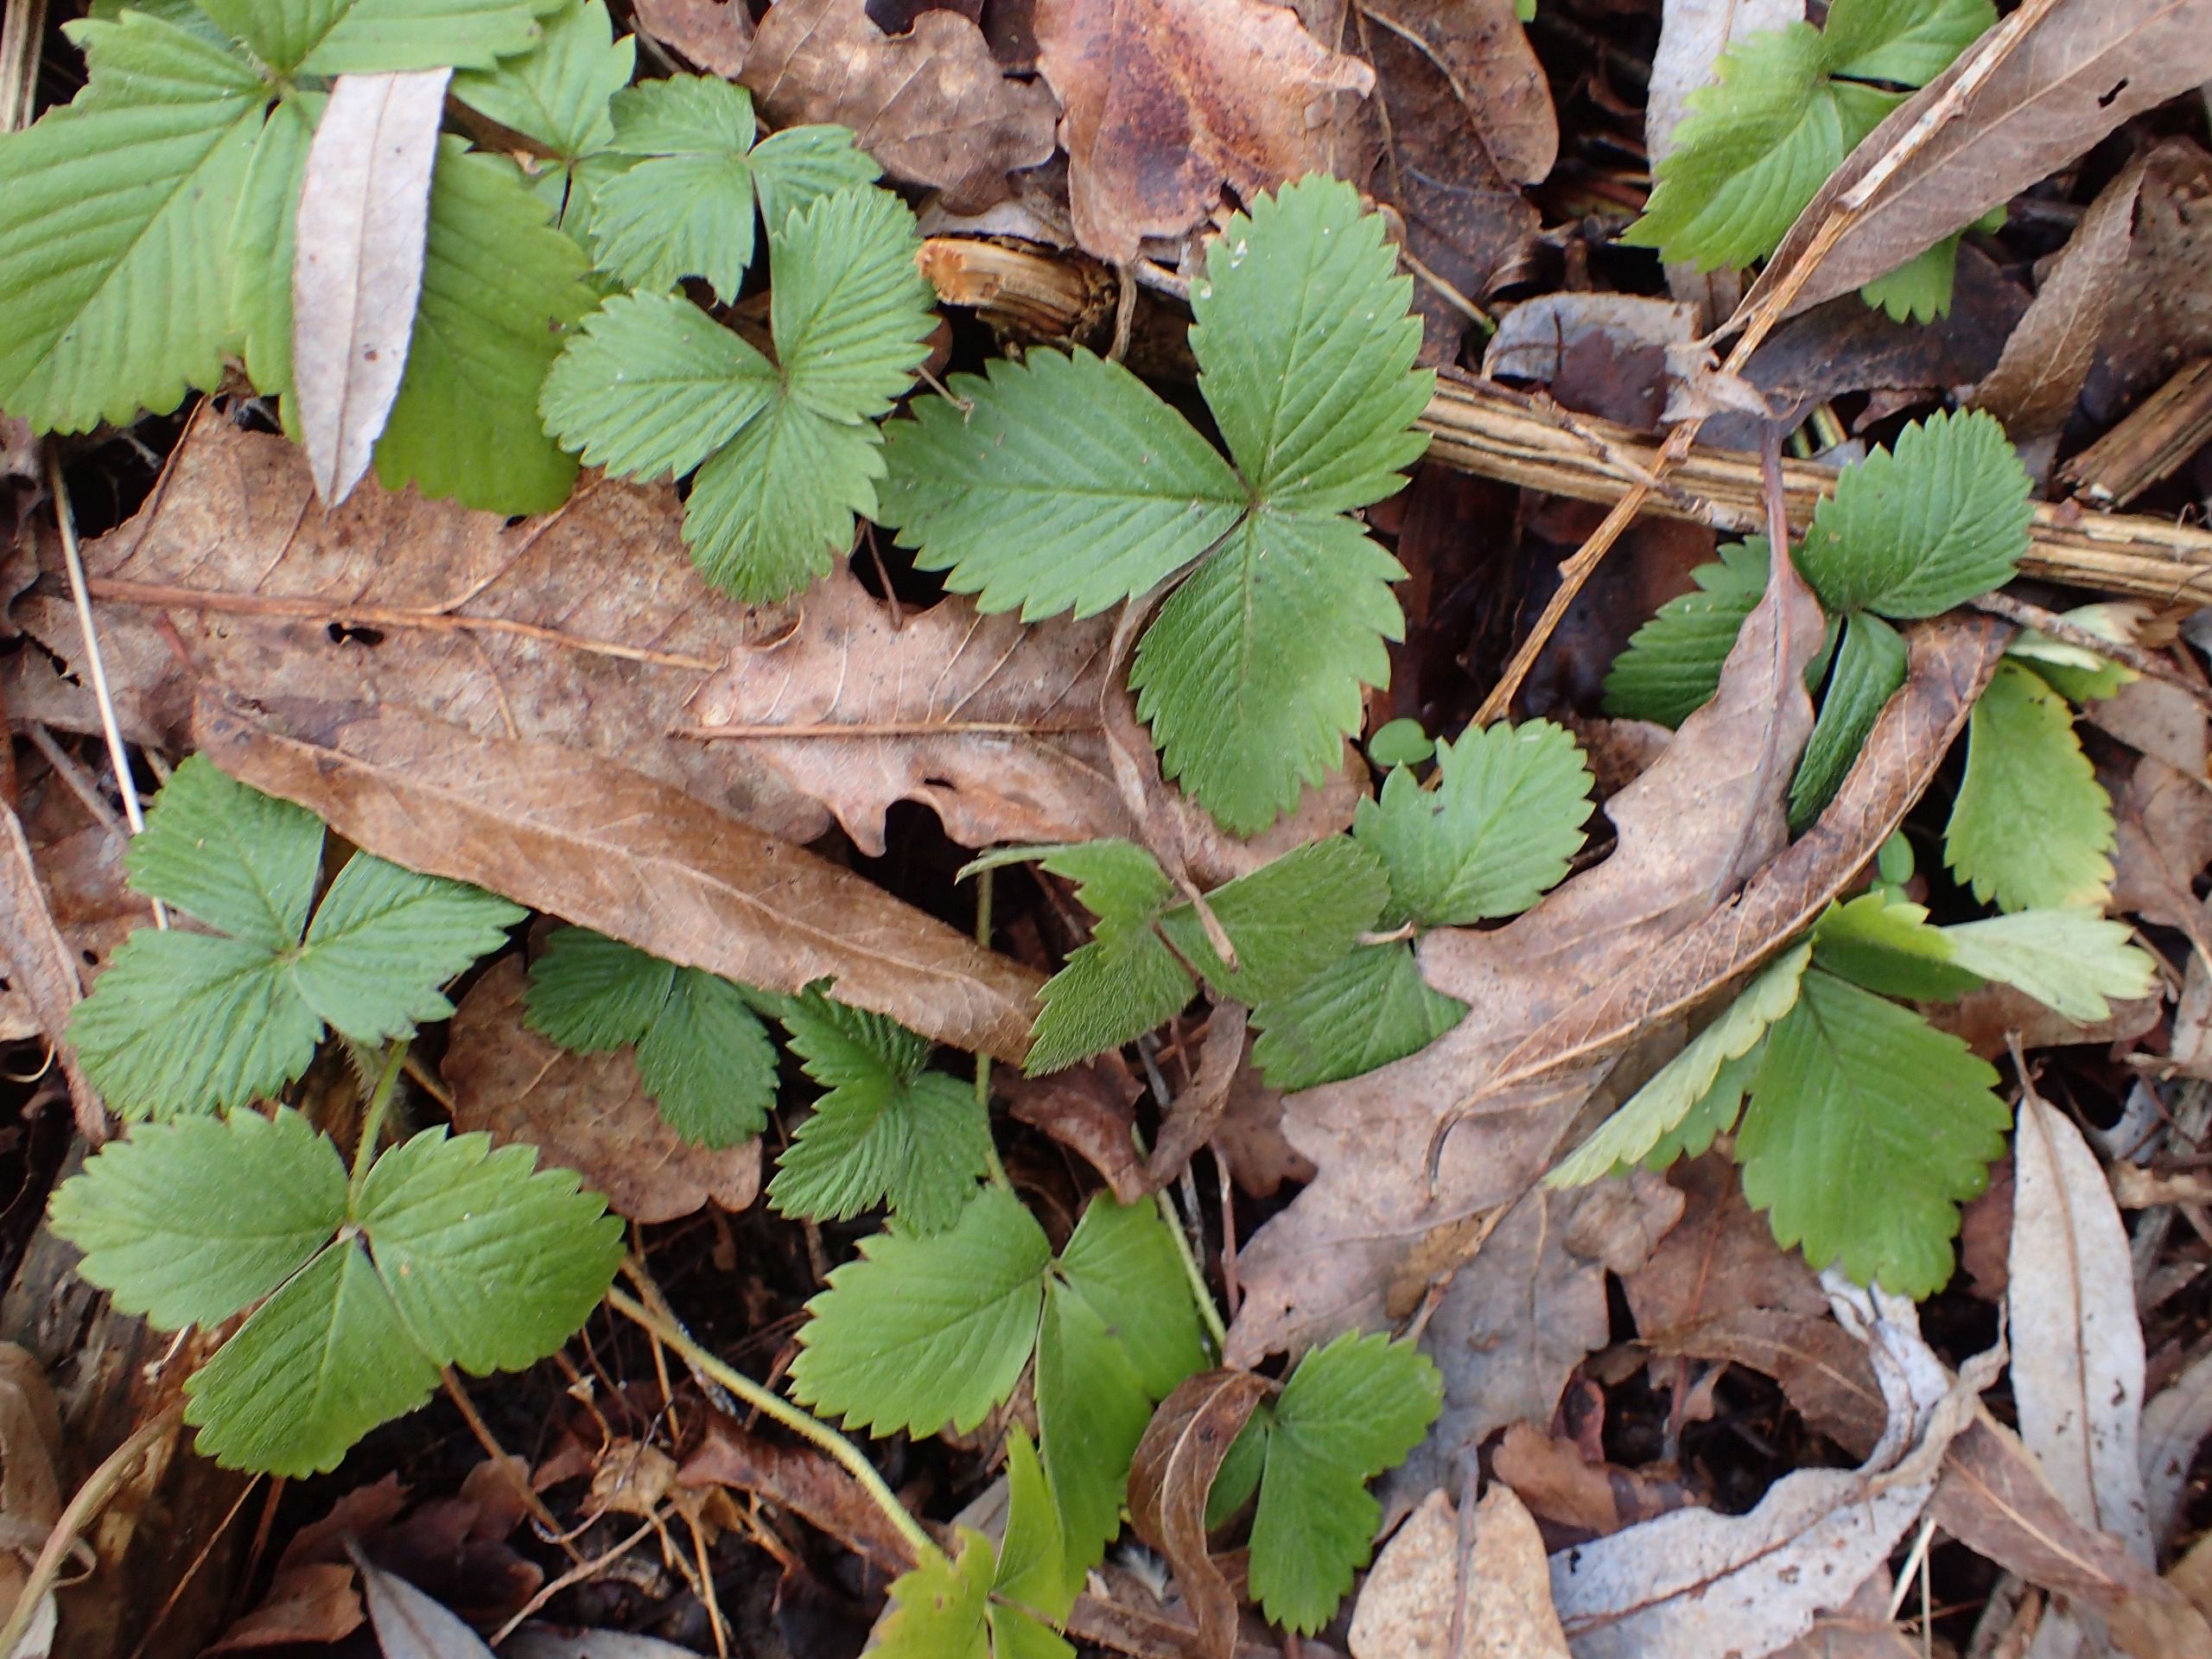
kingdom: Plantae
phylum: Tracheophyta
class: Magnoliopsida
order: Rosales
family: Rosaceae
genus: Fragaria
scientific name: Fragaria vesca
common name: Skov-jordbær
